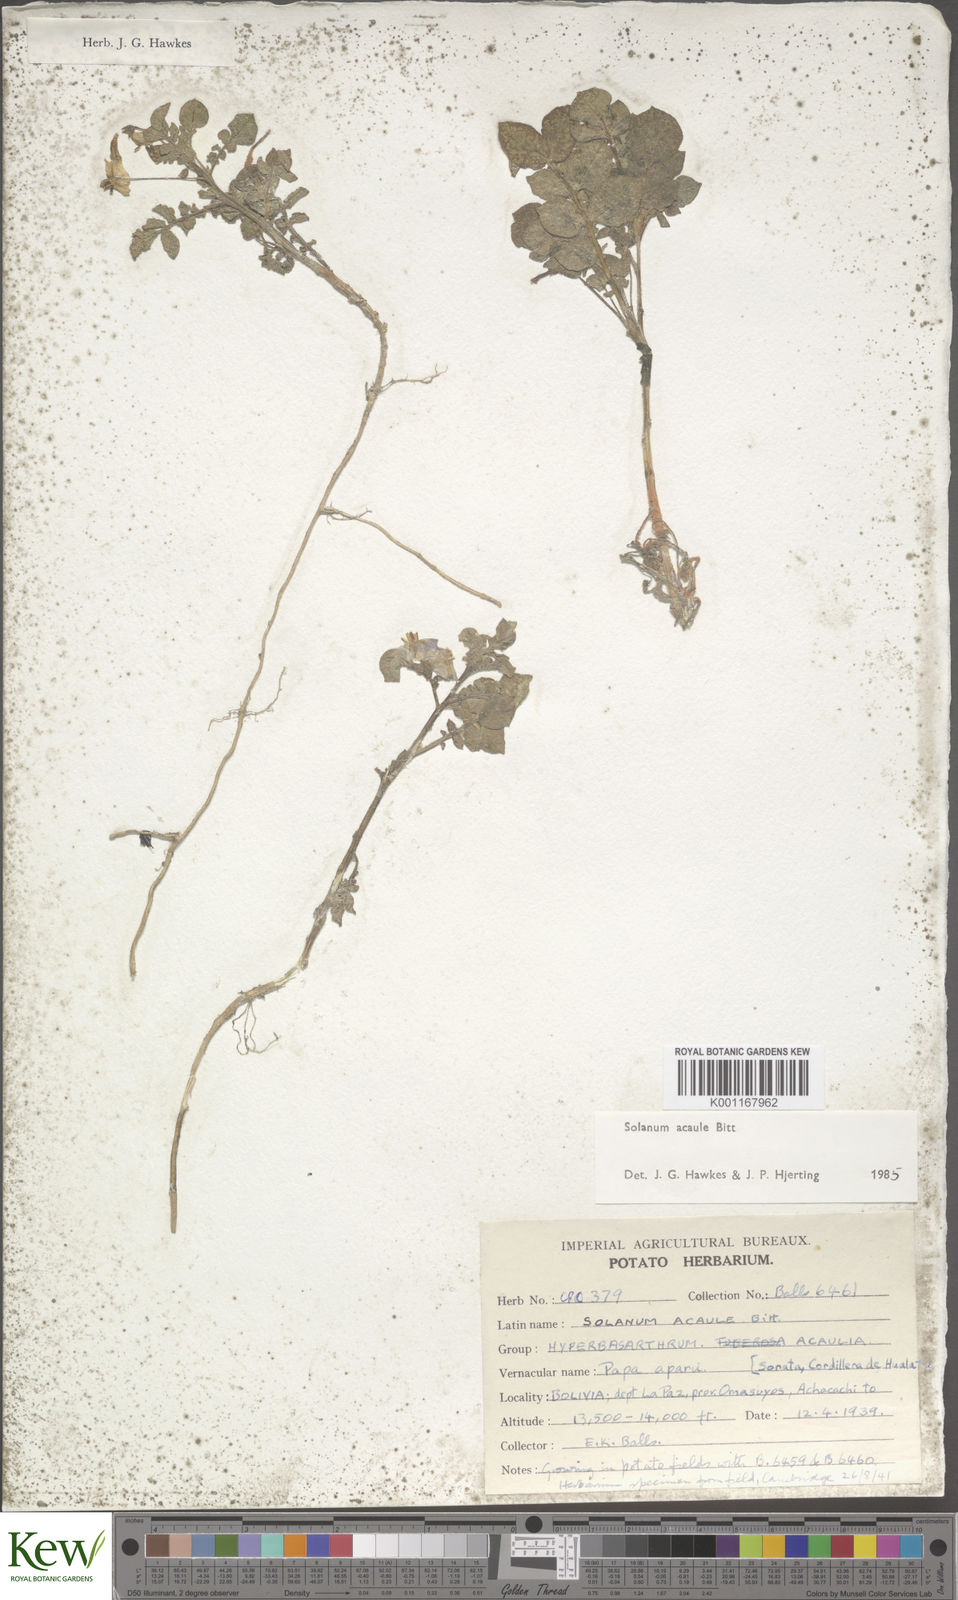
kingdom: Plantae
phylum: Tracheophyta
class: Magnoliopsida
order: Solanales
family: Solanaceae
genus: Solanum
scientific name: Solanum acaule
